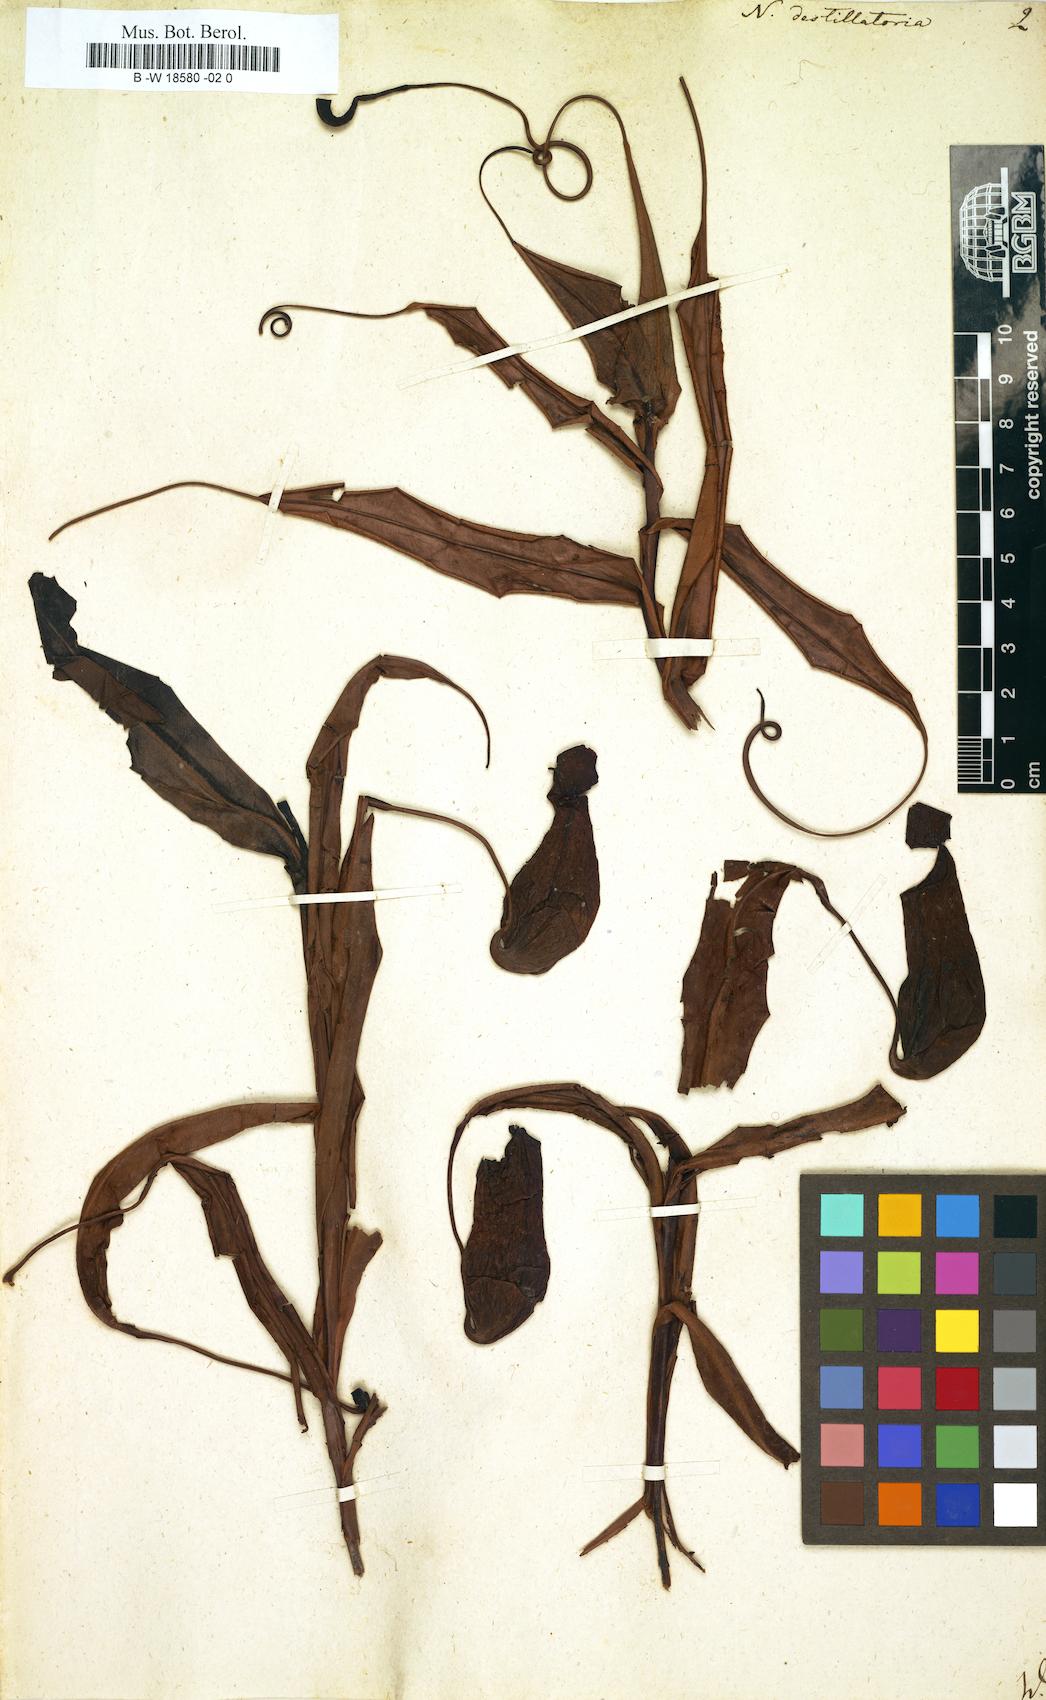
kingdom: Plantae
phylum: Tracheophyta
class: Magnoliopsida
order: Caryophyllales
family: Nepenthaceae
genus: Nepenthes
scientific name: Nepenthes distillatoria
